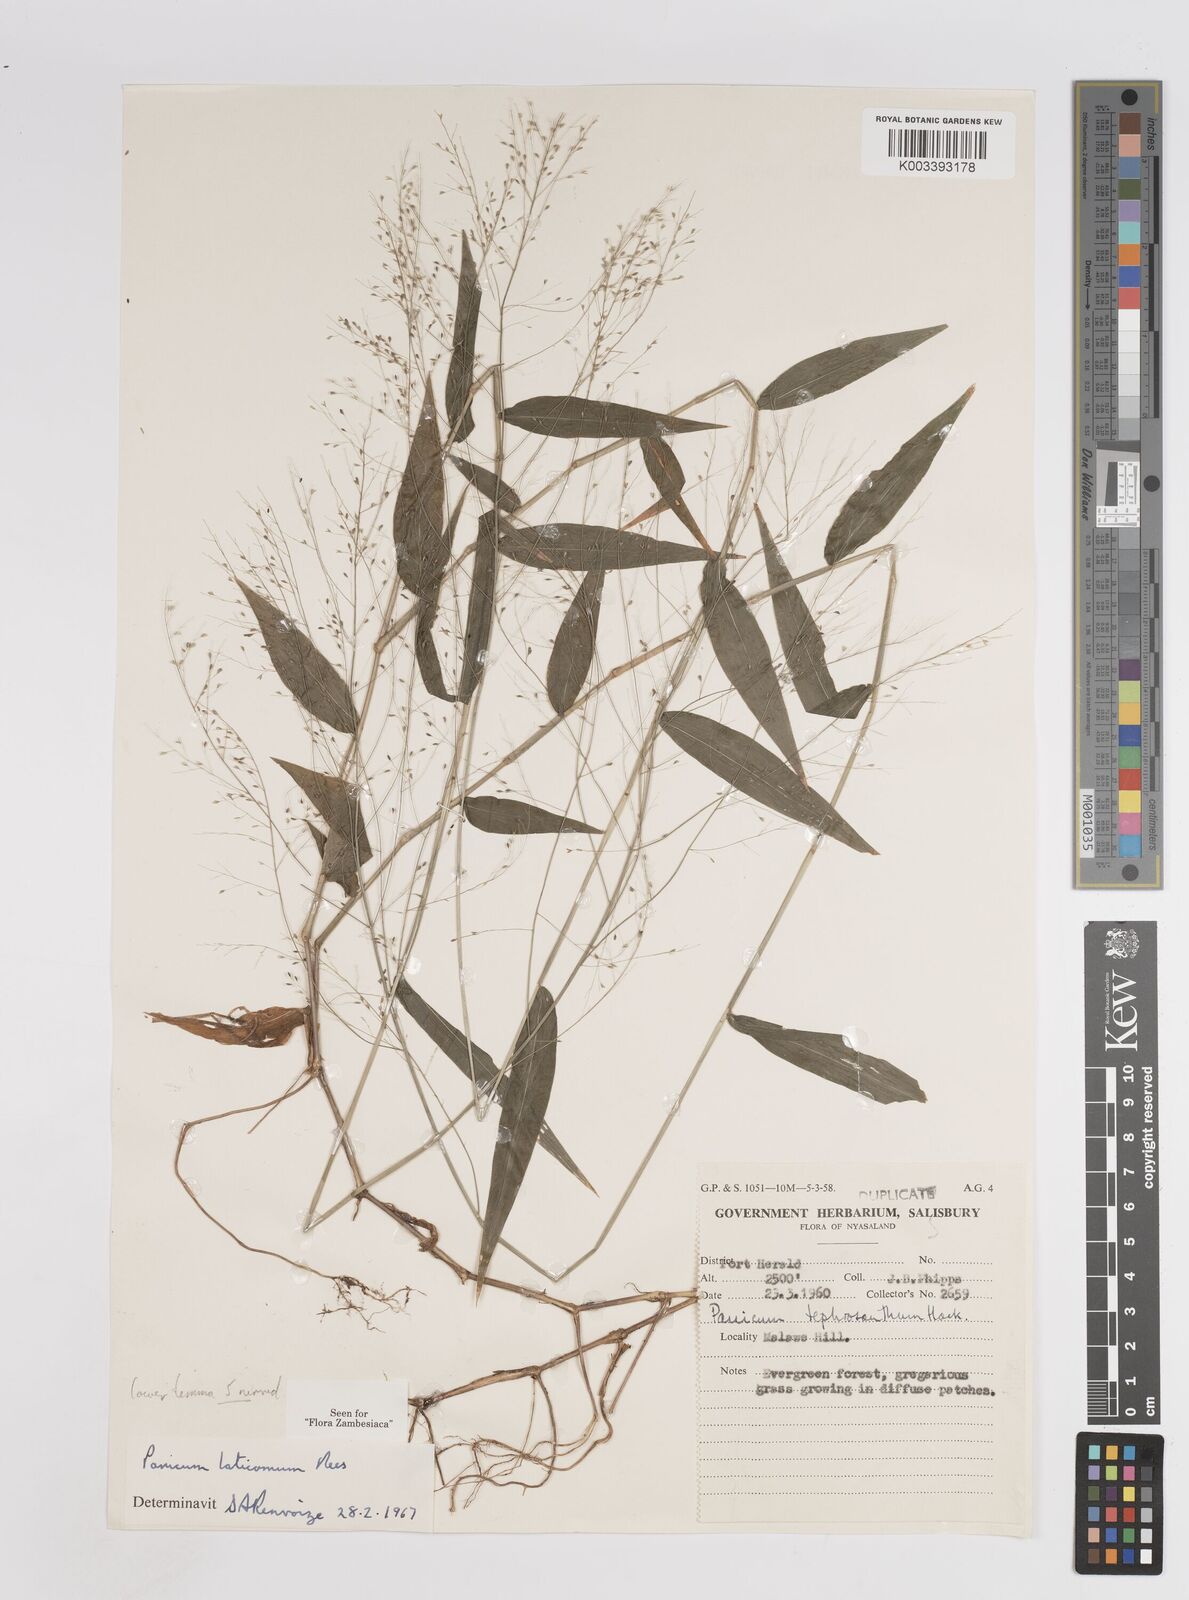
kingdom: Plantae
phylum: Tracheophyta
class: Liliopsida
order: Poales
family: Poaceae
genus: Panicum
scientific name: Panicum laticomum
